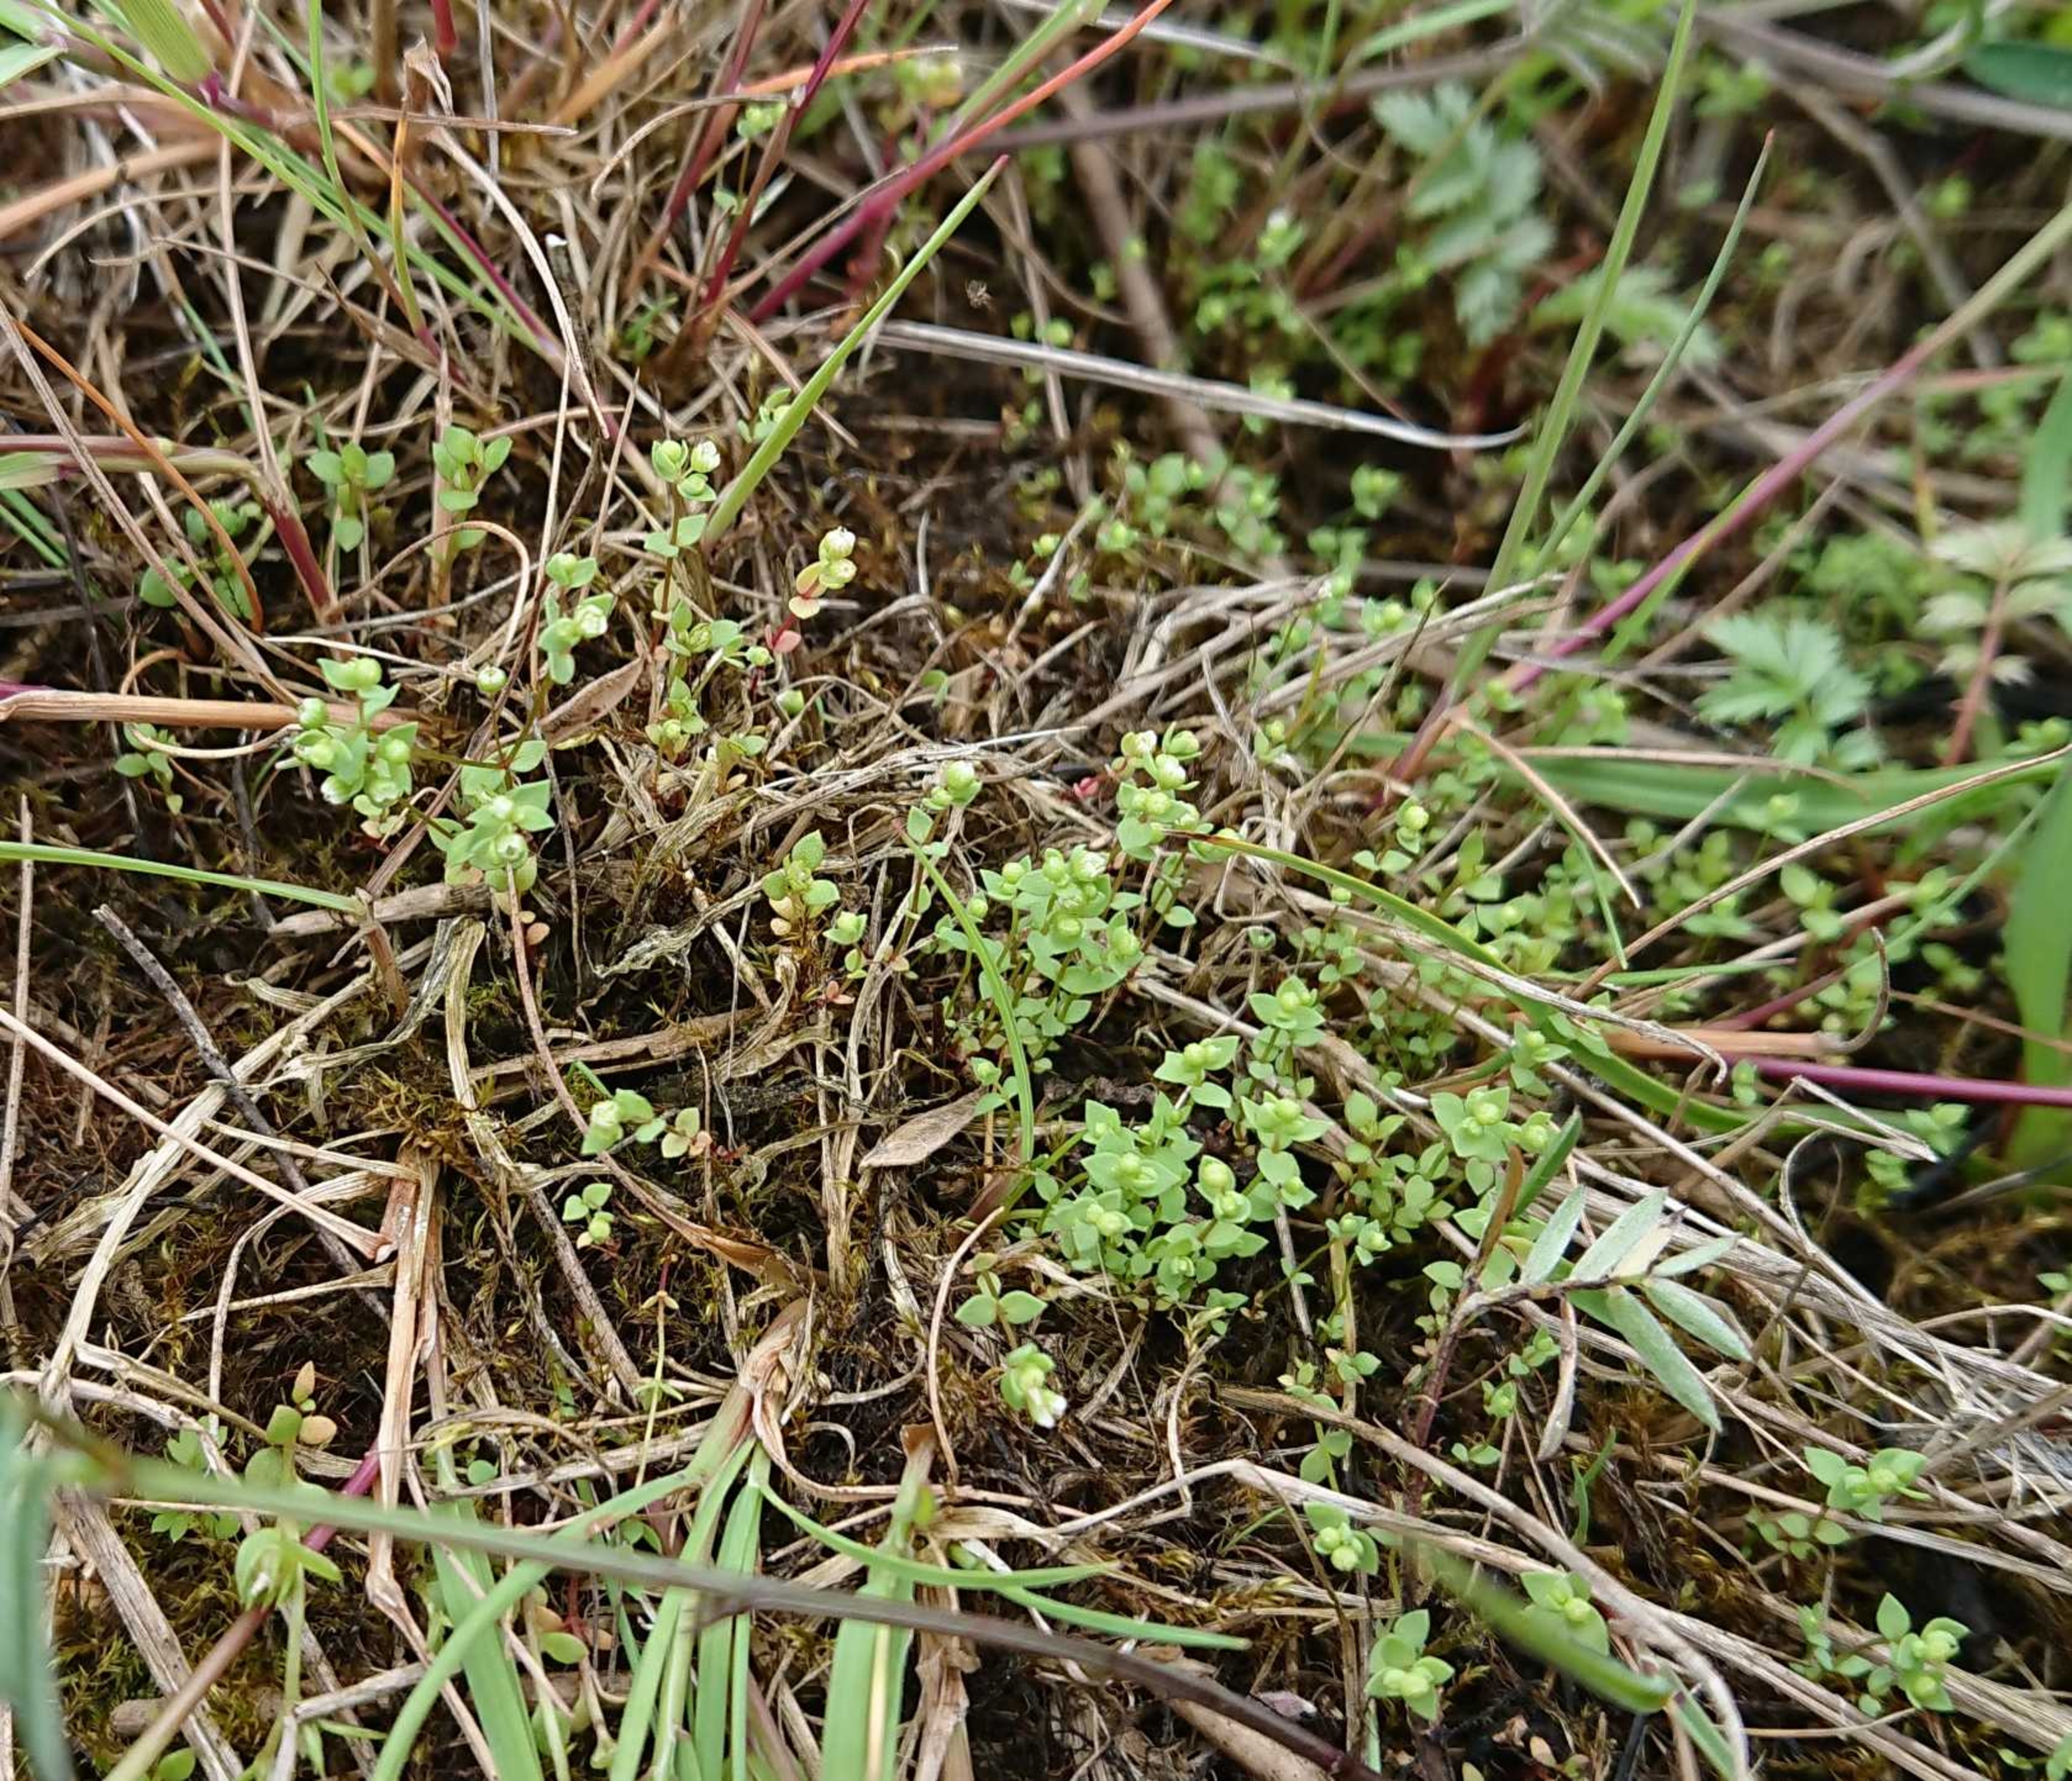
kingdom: Plantae
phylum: Tracheophyta
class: Magnoliopsida
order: Malpighiales
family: Linaceae
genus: Radiola
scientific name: Radiola linoides
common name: Tusindfrø
